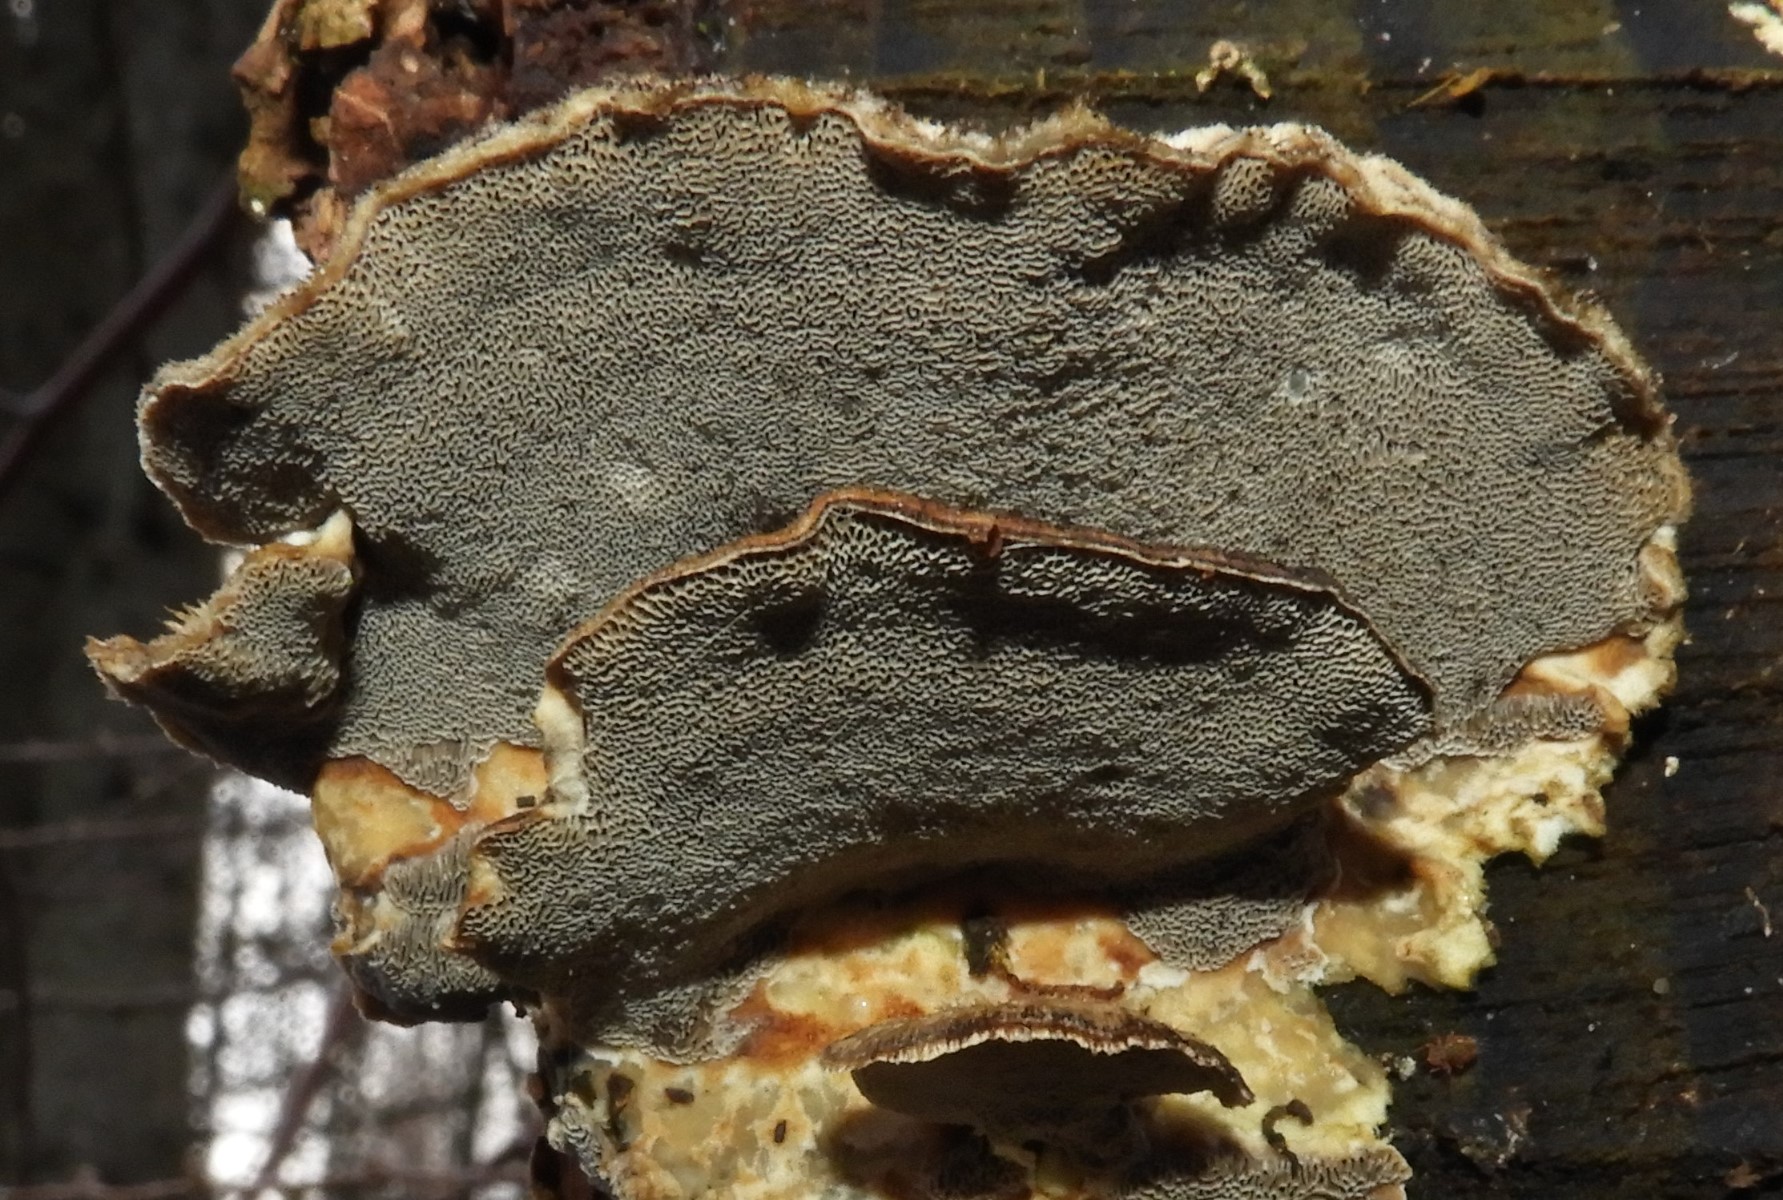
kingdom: Fungi
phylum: Basidiomycota
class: Agaricomycetes
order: Polyporales
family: Phanerochaetaceae
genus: Bjerkandera
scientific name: Bjerkandera adusta
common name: sveden sodporesvamp
